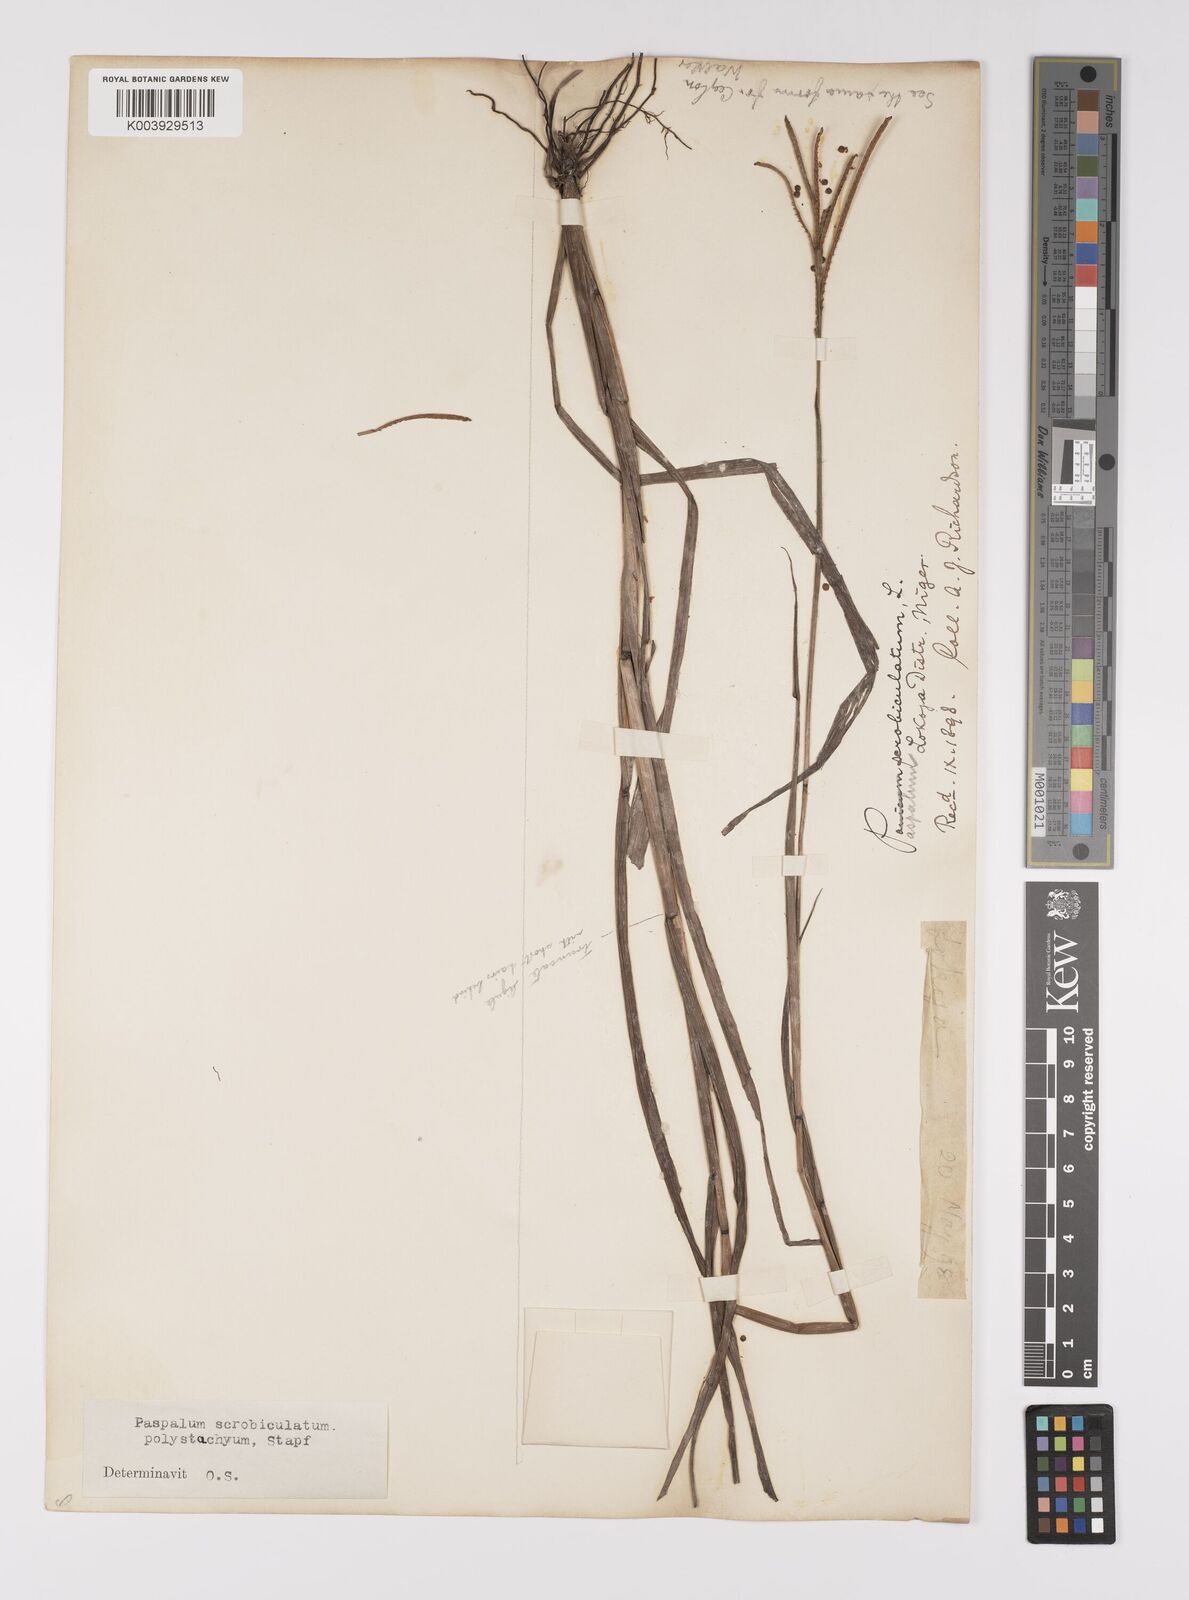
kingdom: Plantae
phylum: Tracheophyta
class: Liliopsida
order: Poales
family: Poaceae
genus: Paspalum
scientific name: Paspalum scrobiculatum
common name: Kodo millet
